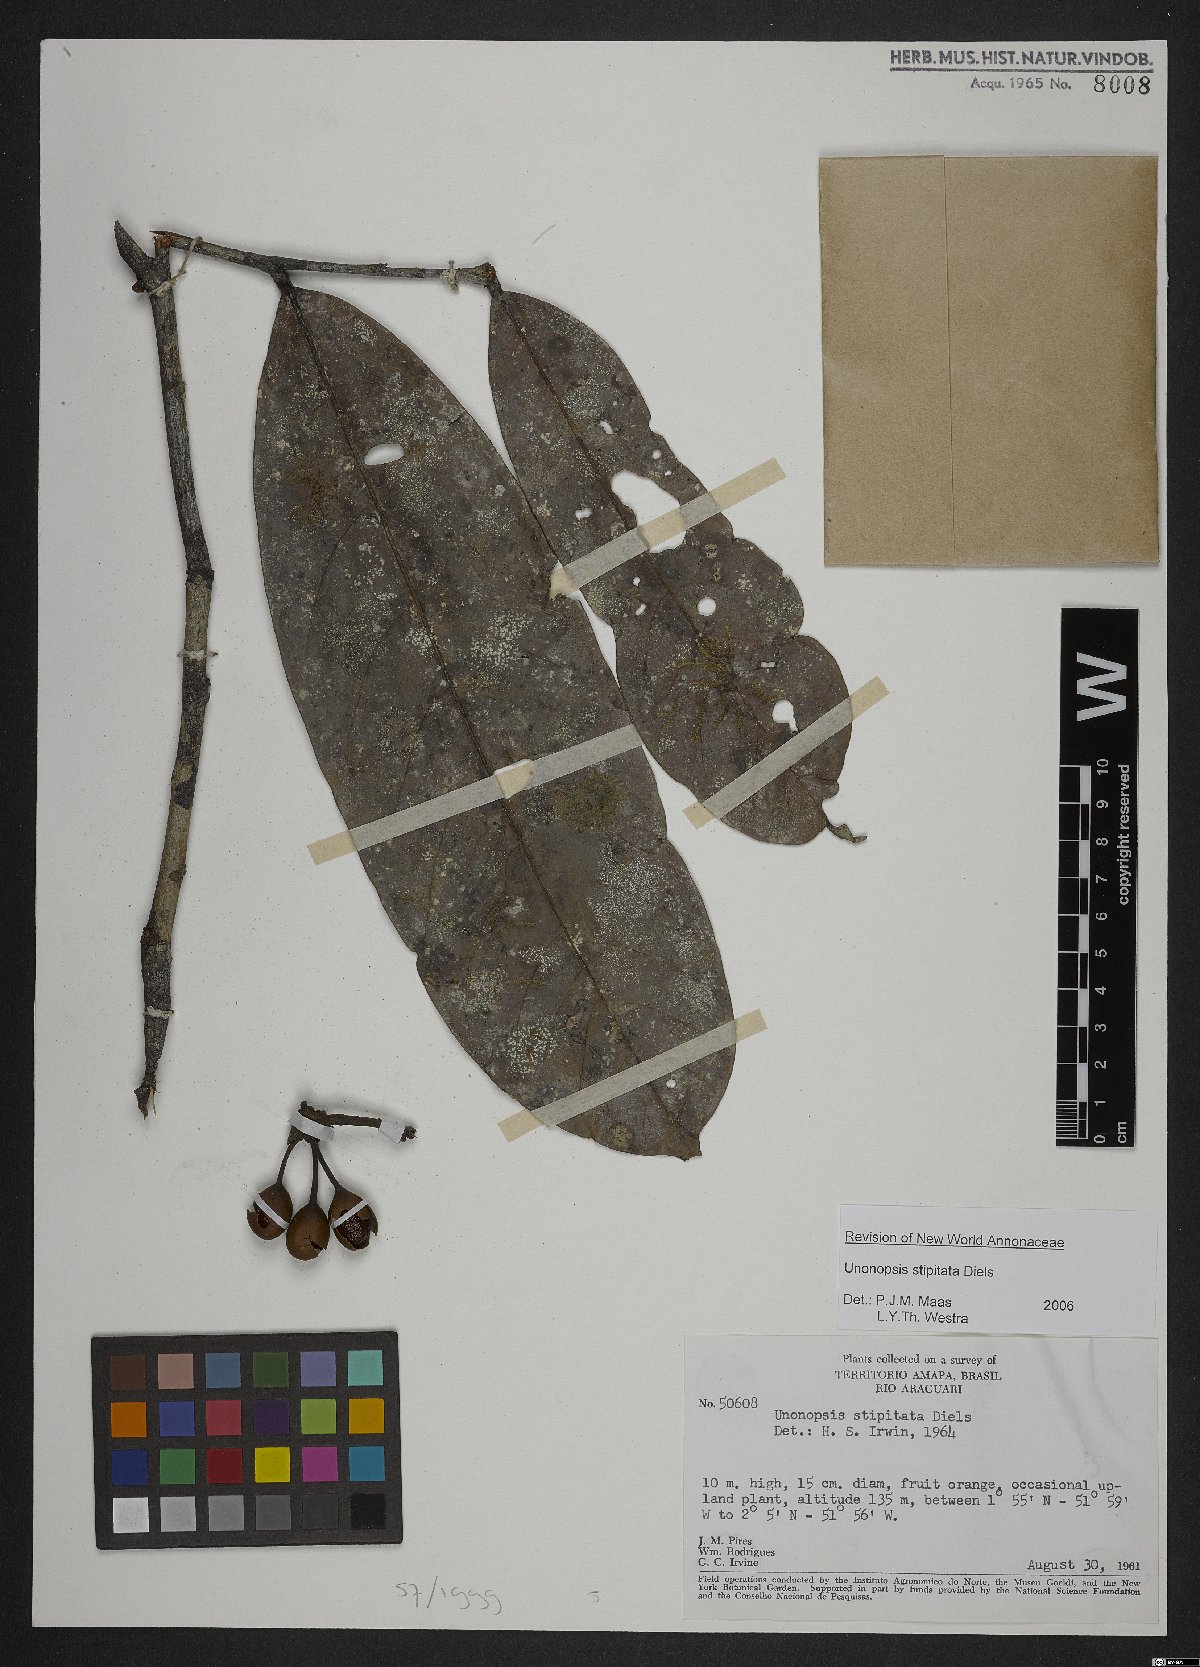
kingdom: Plantae
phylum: Tracheophyta
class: Magnoliopsida
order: Magnoliales
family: Annonaceae
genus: Unonopsis
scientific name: Unonopsis stipitata
